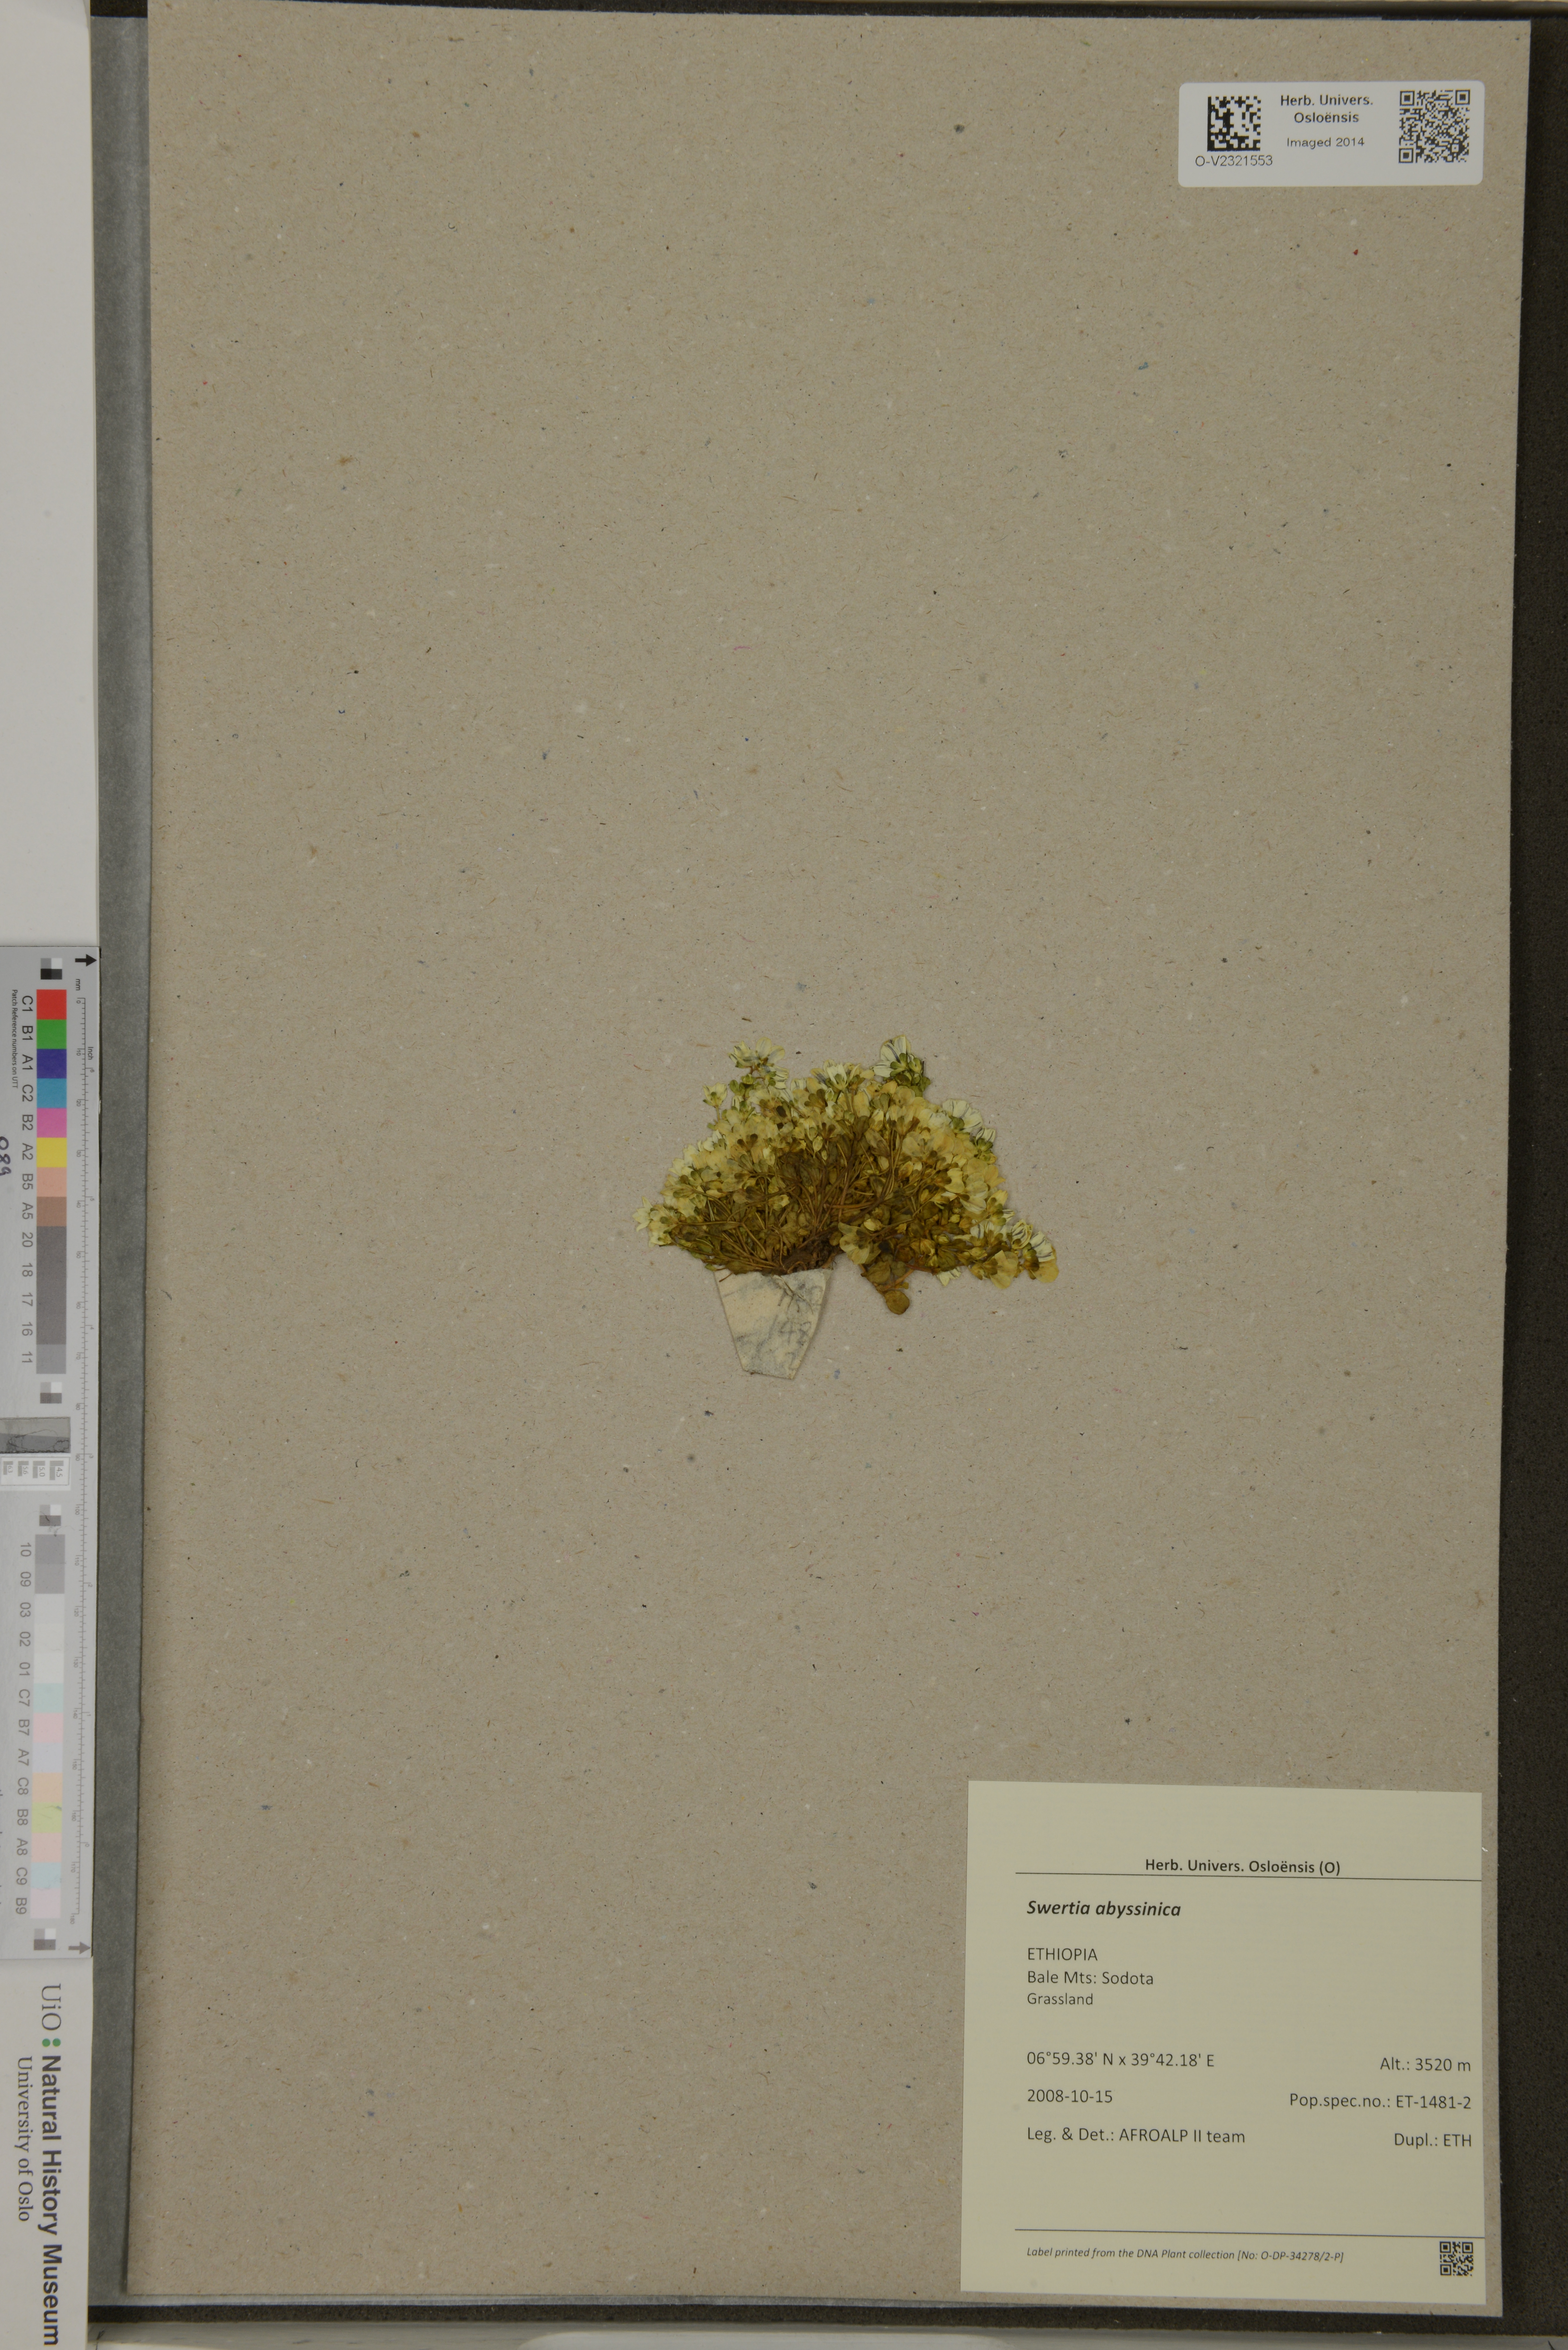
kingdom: Plantae
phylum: Tracheophyta
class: Magnoliopsida
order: Gentianales
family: Gentianaceae
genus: Swertia
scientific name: Swertia abyssinica
